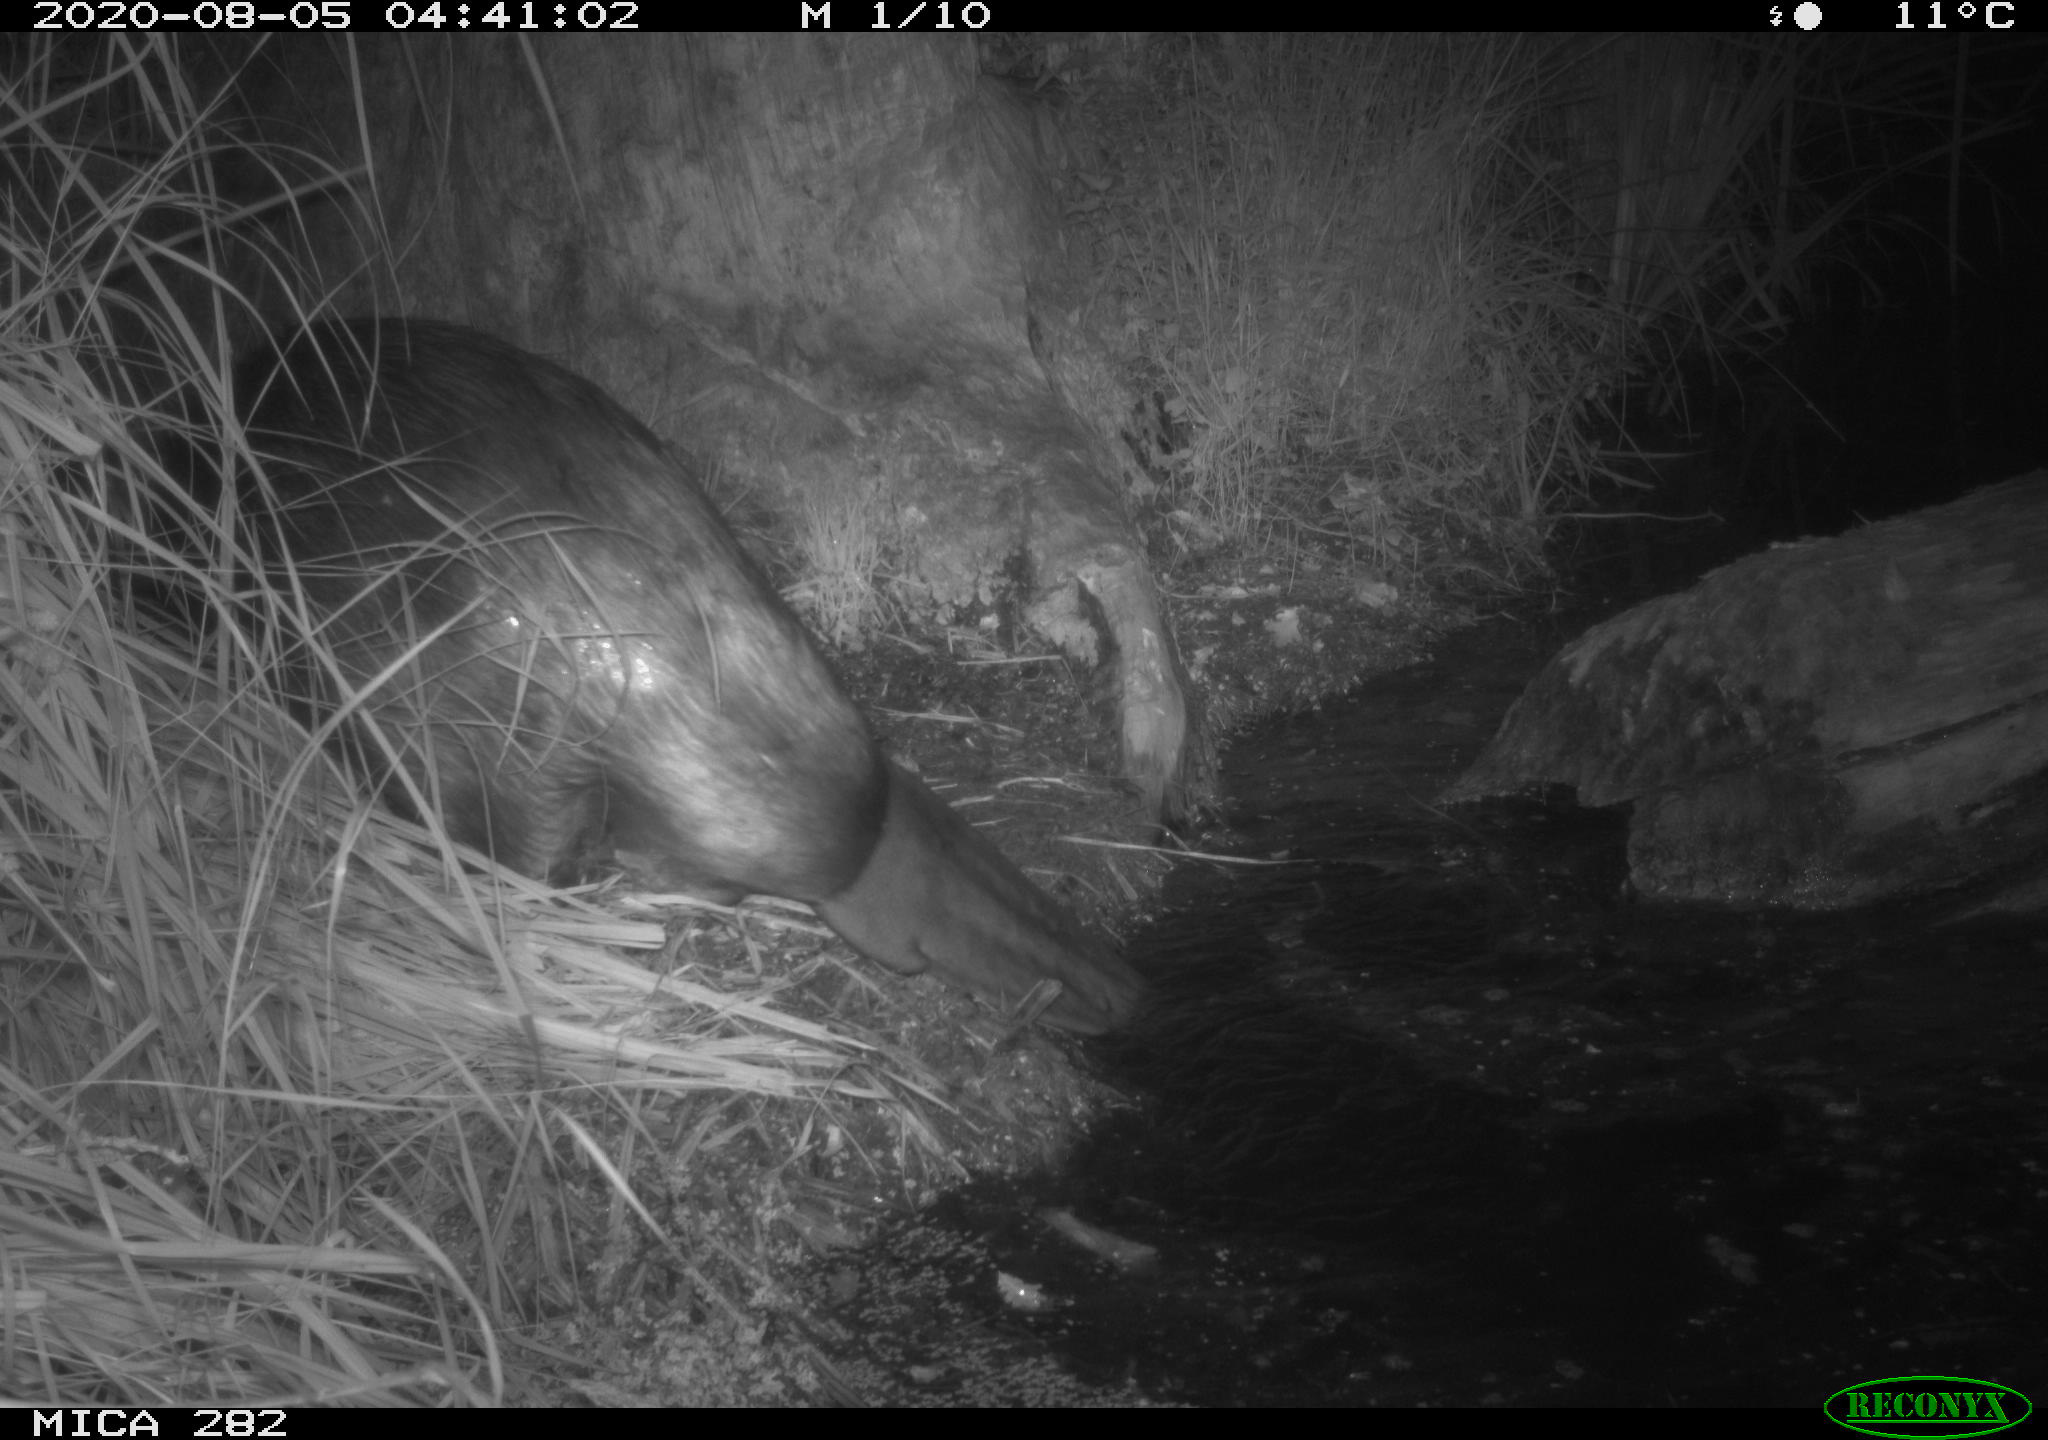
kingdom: Animalia
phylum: Chordata
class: Mammalia
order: Rodentia
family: Castoridae
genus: Castor
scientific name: Castor fiber
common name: Eurasian beaver
